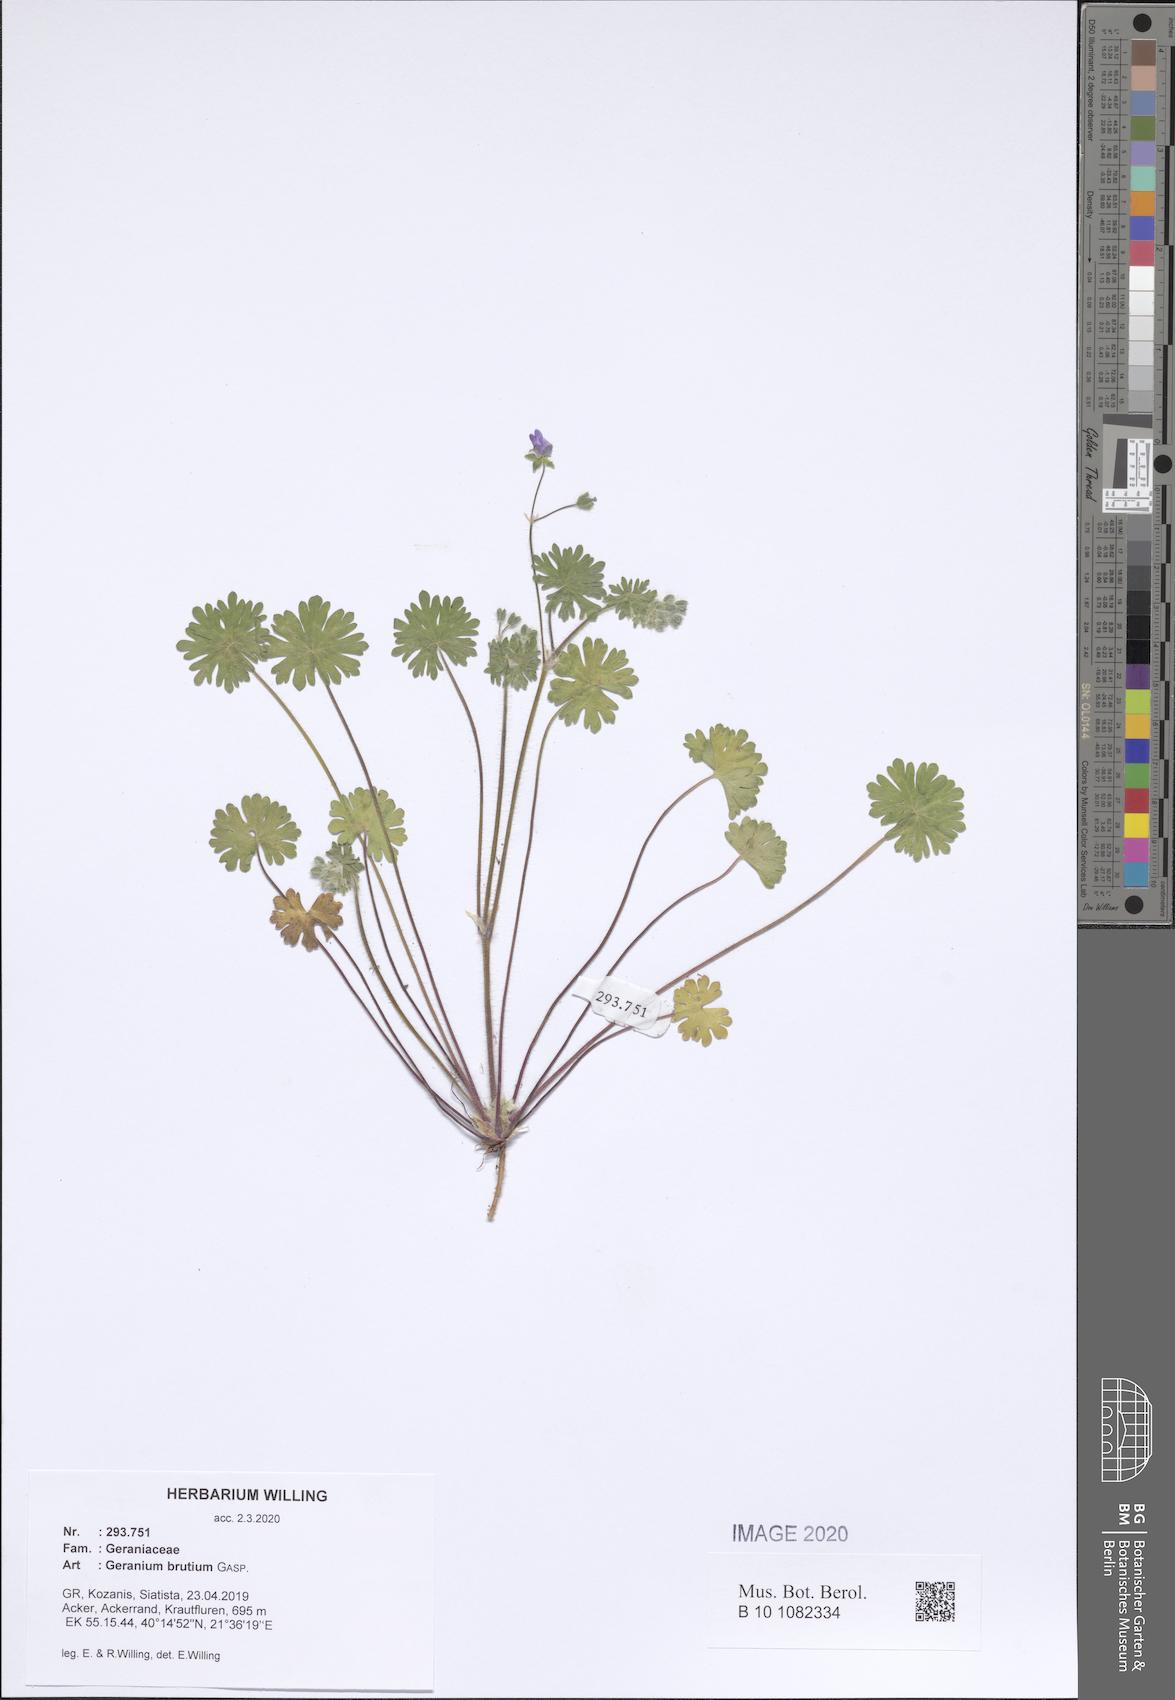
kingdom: Plantae
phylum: Tracheophyta
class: Magnoliopsida
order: Geraniales
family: Geraniaceae
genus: Geranium
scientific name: Geranium molle
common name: Dove's-foot crane's-bill
